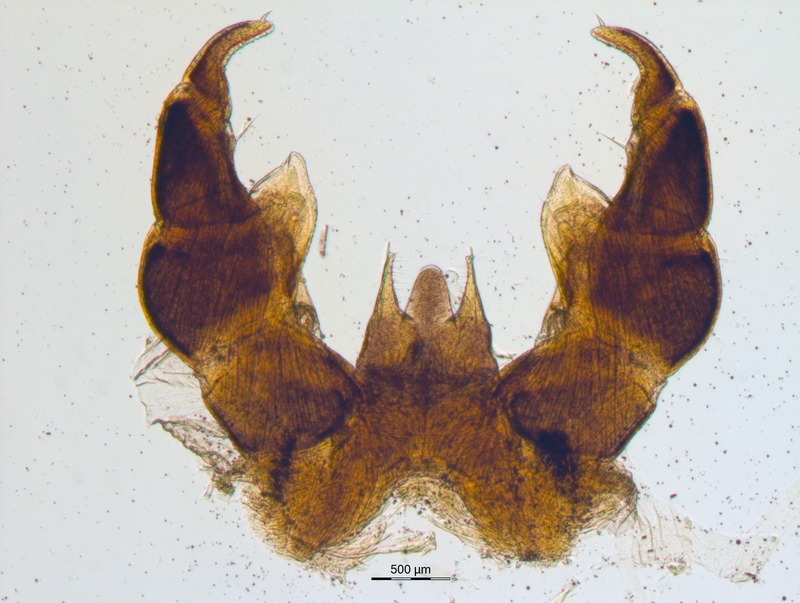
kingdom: Animalia
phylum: Arthropoda
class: Diplopoda
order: Glomerida
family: Glomeridae
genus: Glomeris
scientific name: Glomeris primordialis
